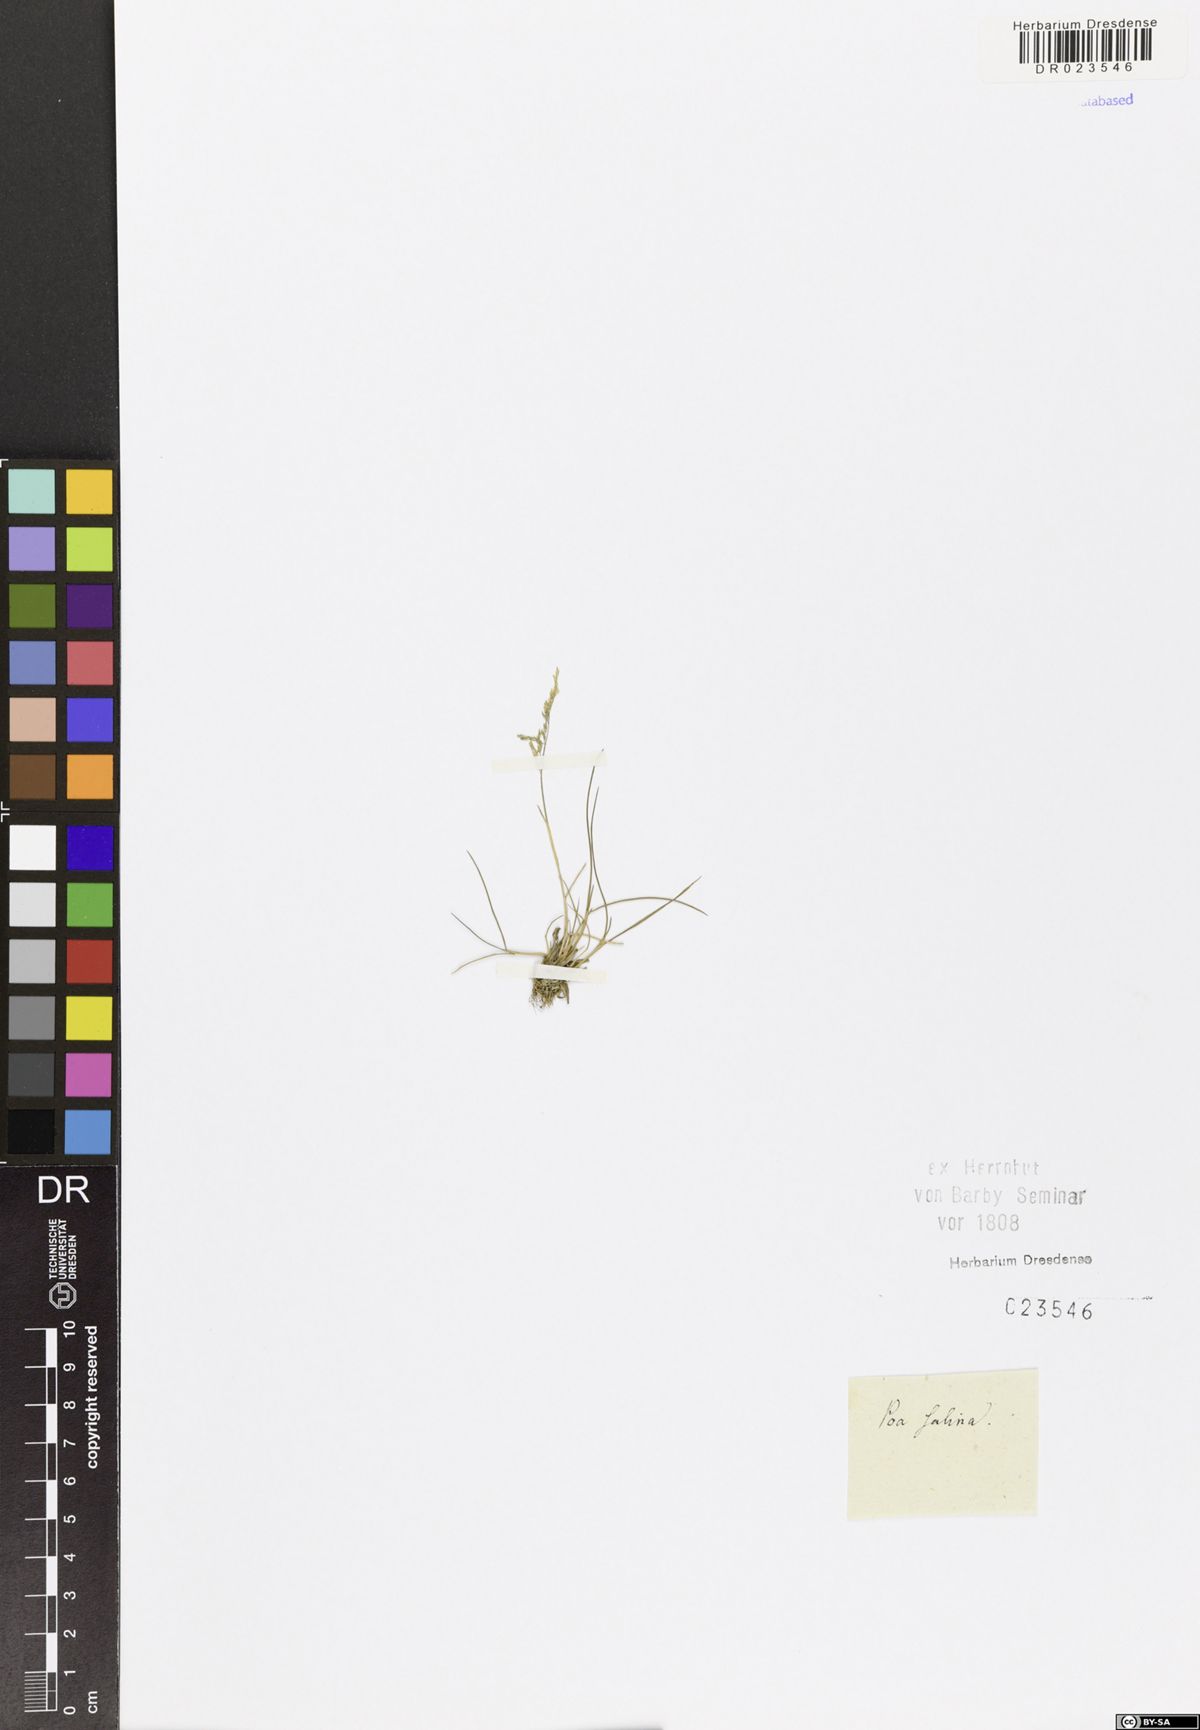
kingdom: Plantae
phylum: Tracheophyta
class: Liliopsida
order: Poales
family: Poaceae
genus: Puccinellia
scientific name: Puccinellia distans
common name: Weeping alkaligrass
